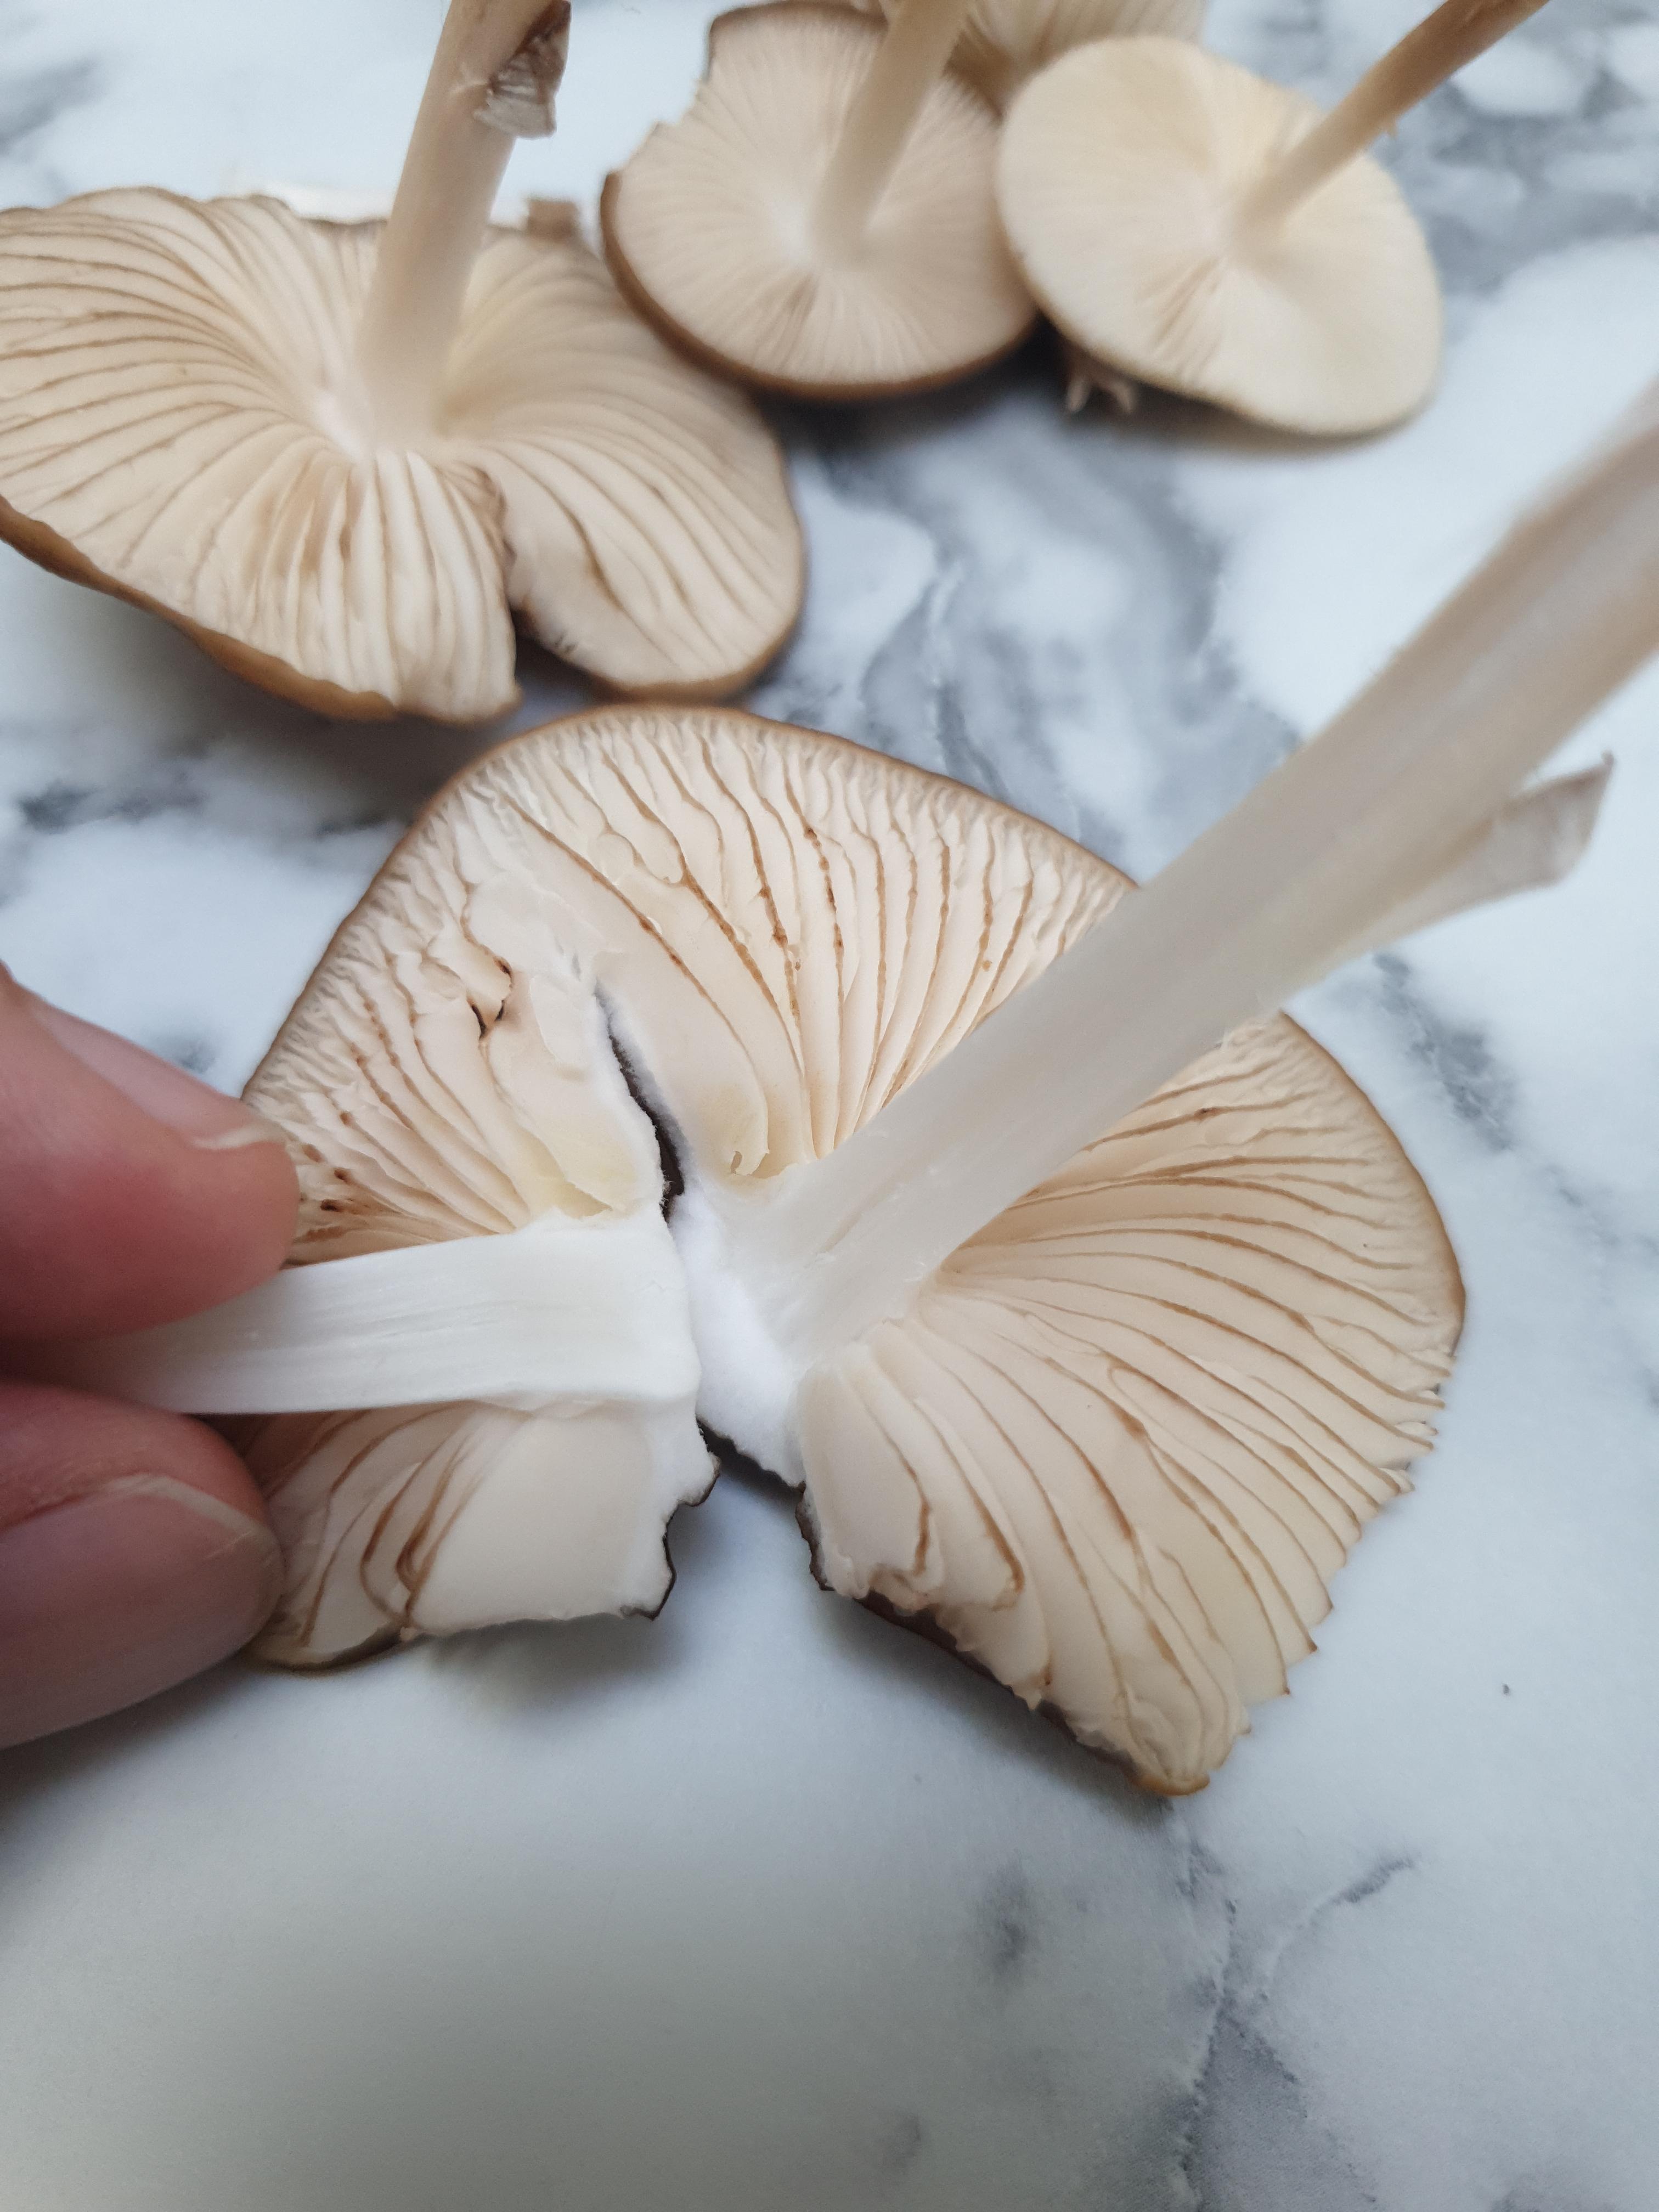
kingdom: Fungi
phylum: Basidiomycota
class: Agaricomycetes
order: Agaricales
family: Physalacriaceae
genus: Hymenopellis
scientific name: Hymenopellis radicata
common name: almindelig pælerodshat
